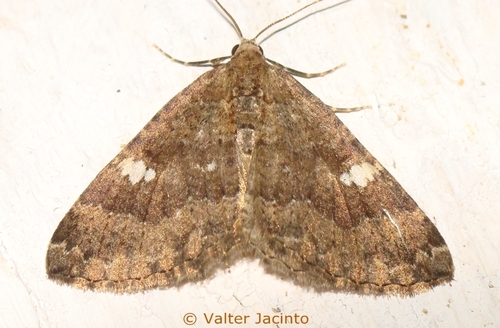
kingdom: Animalia
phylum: Arthropoda
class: Insecta
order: Lepidoptera
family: Geometridae
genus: Nebula
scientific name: Nebula malvata
